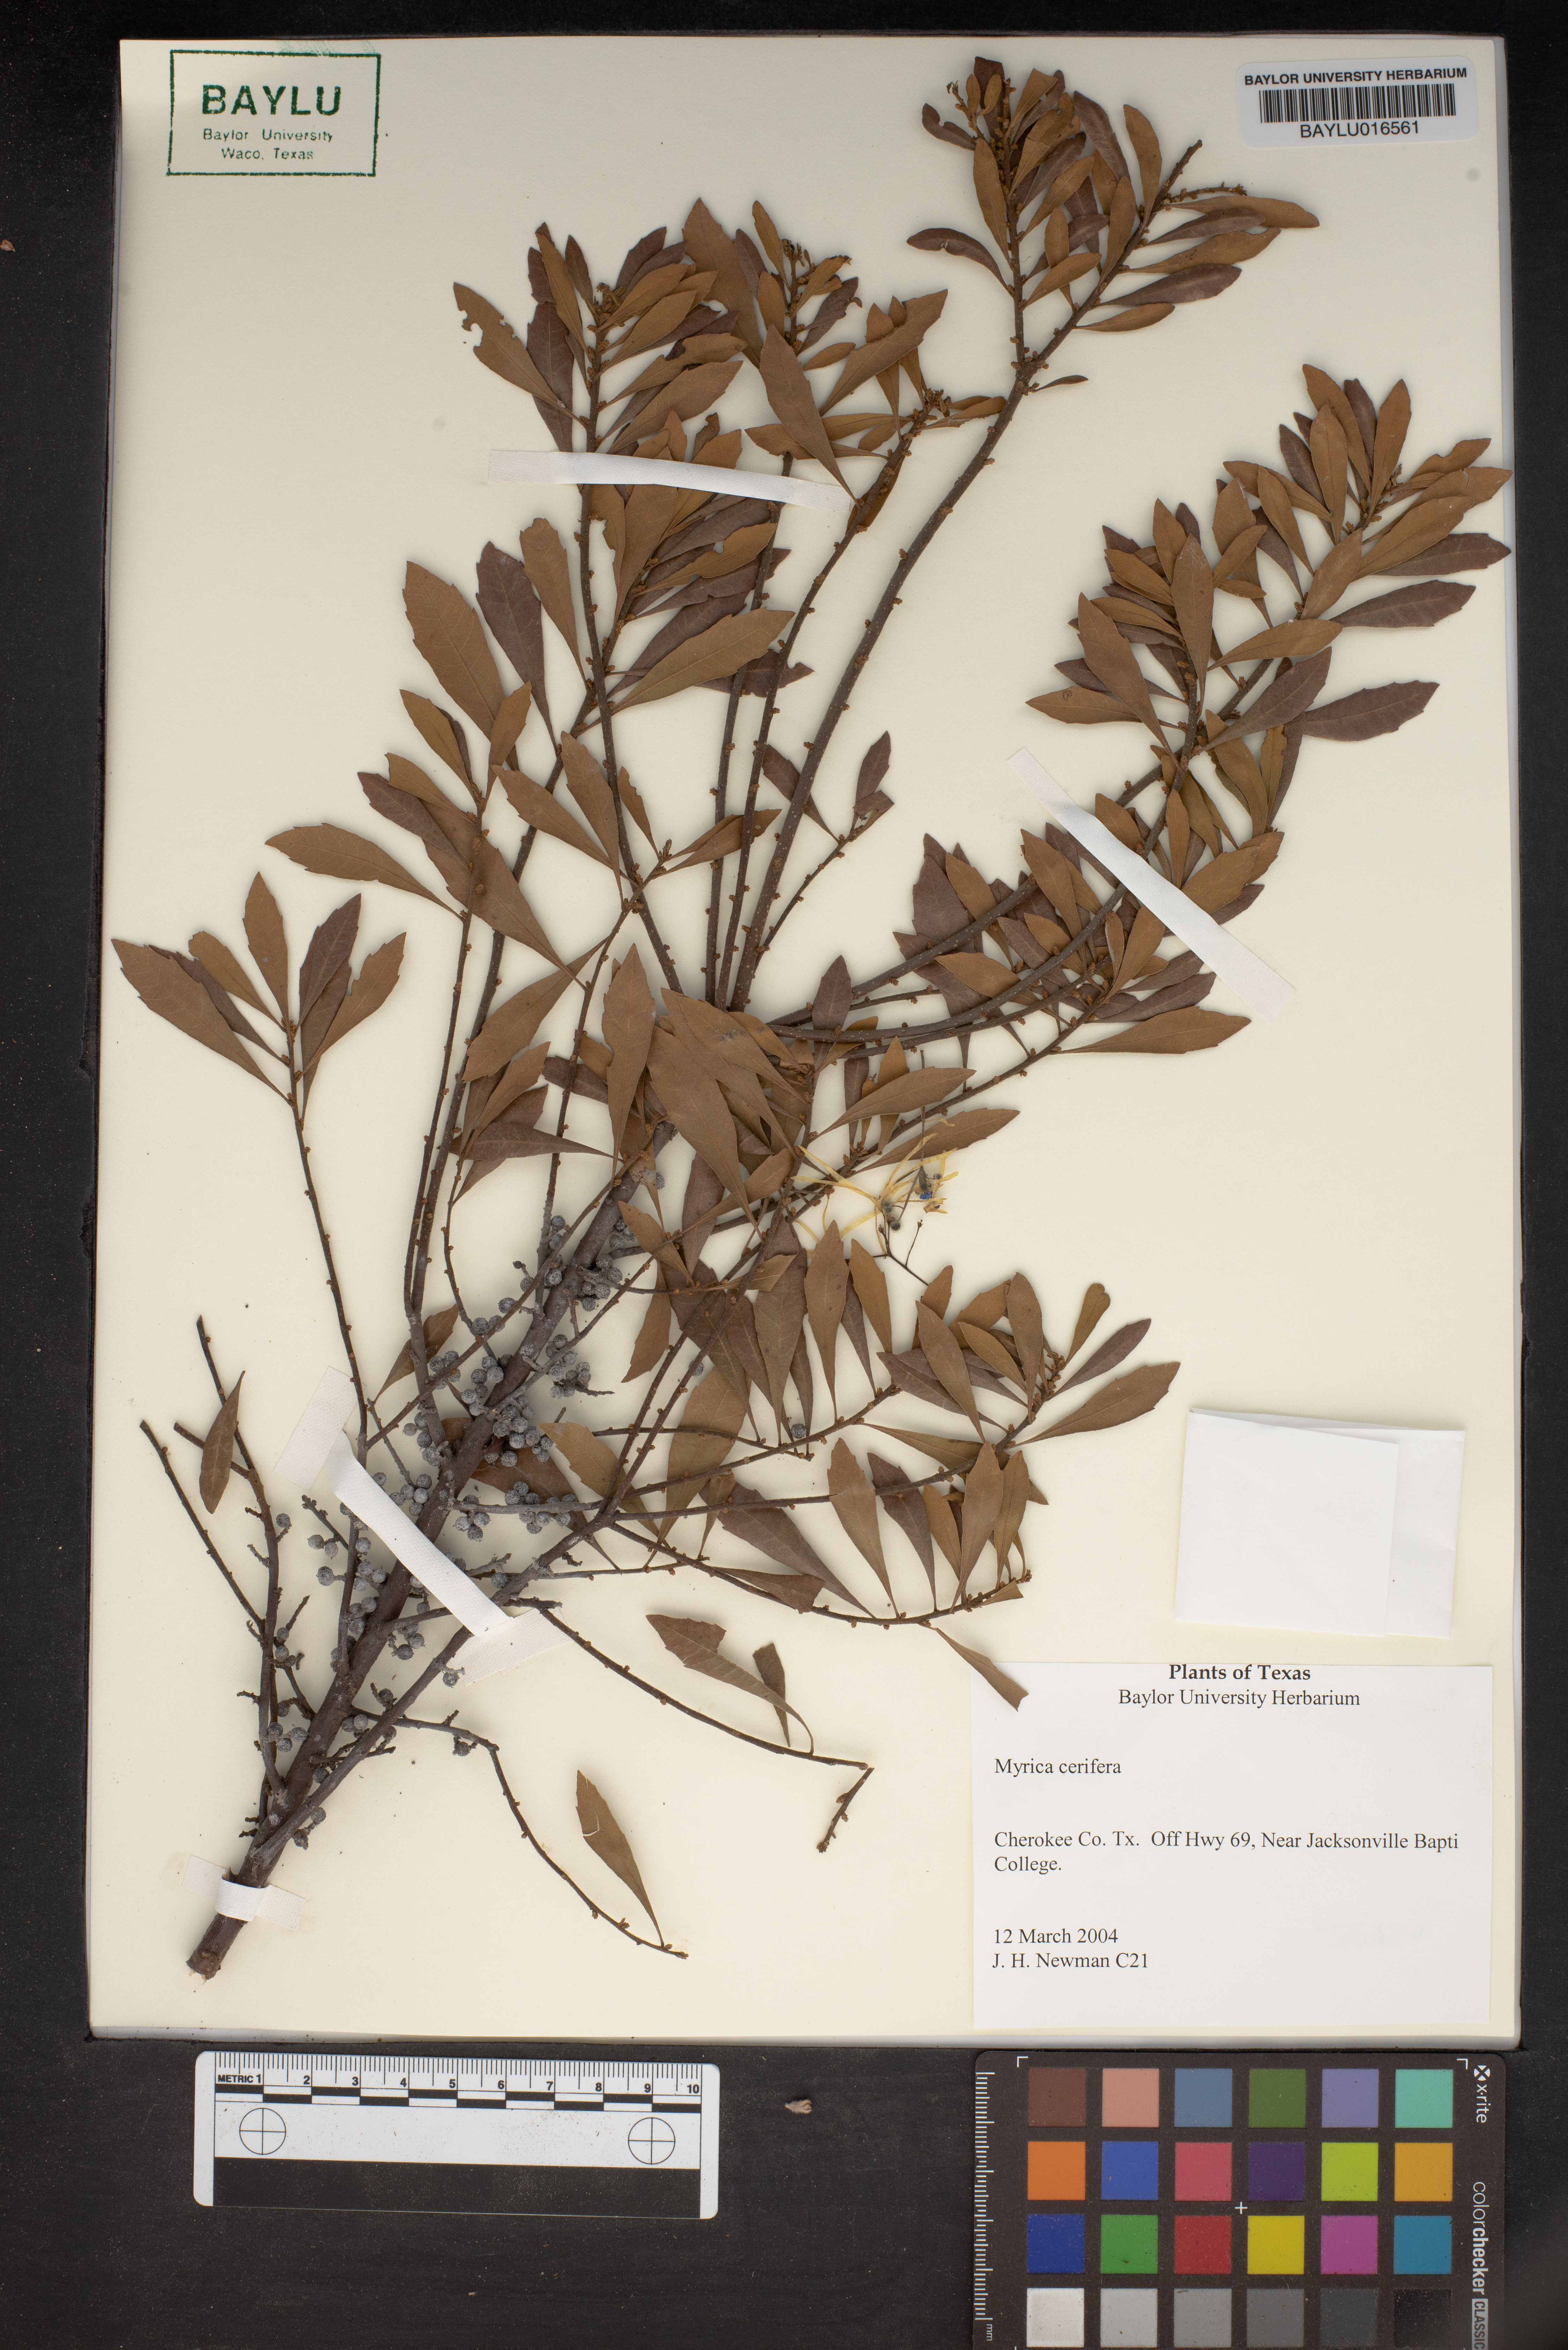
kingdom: Plantae
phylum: Tracheophyta
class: Magnoliopsida
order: Fagales
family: Myricaceae
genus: Morella
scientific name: Morella cerifera
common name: Wax myrtle
